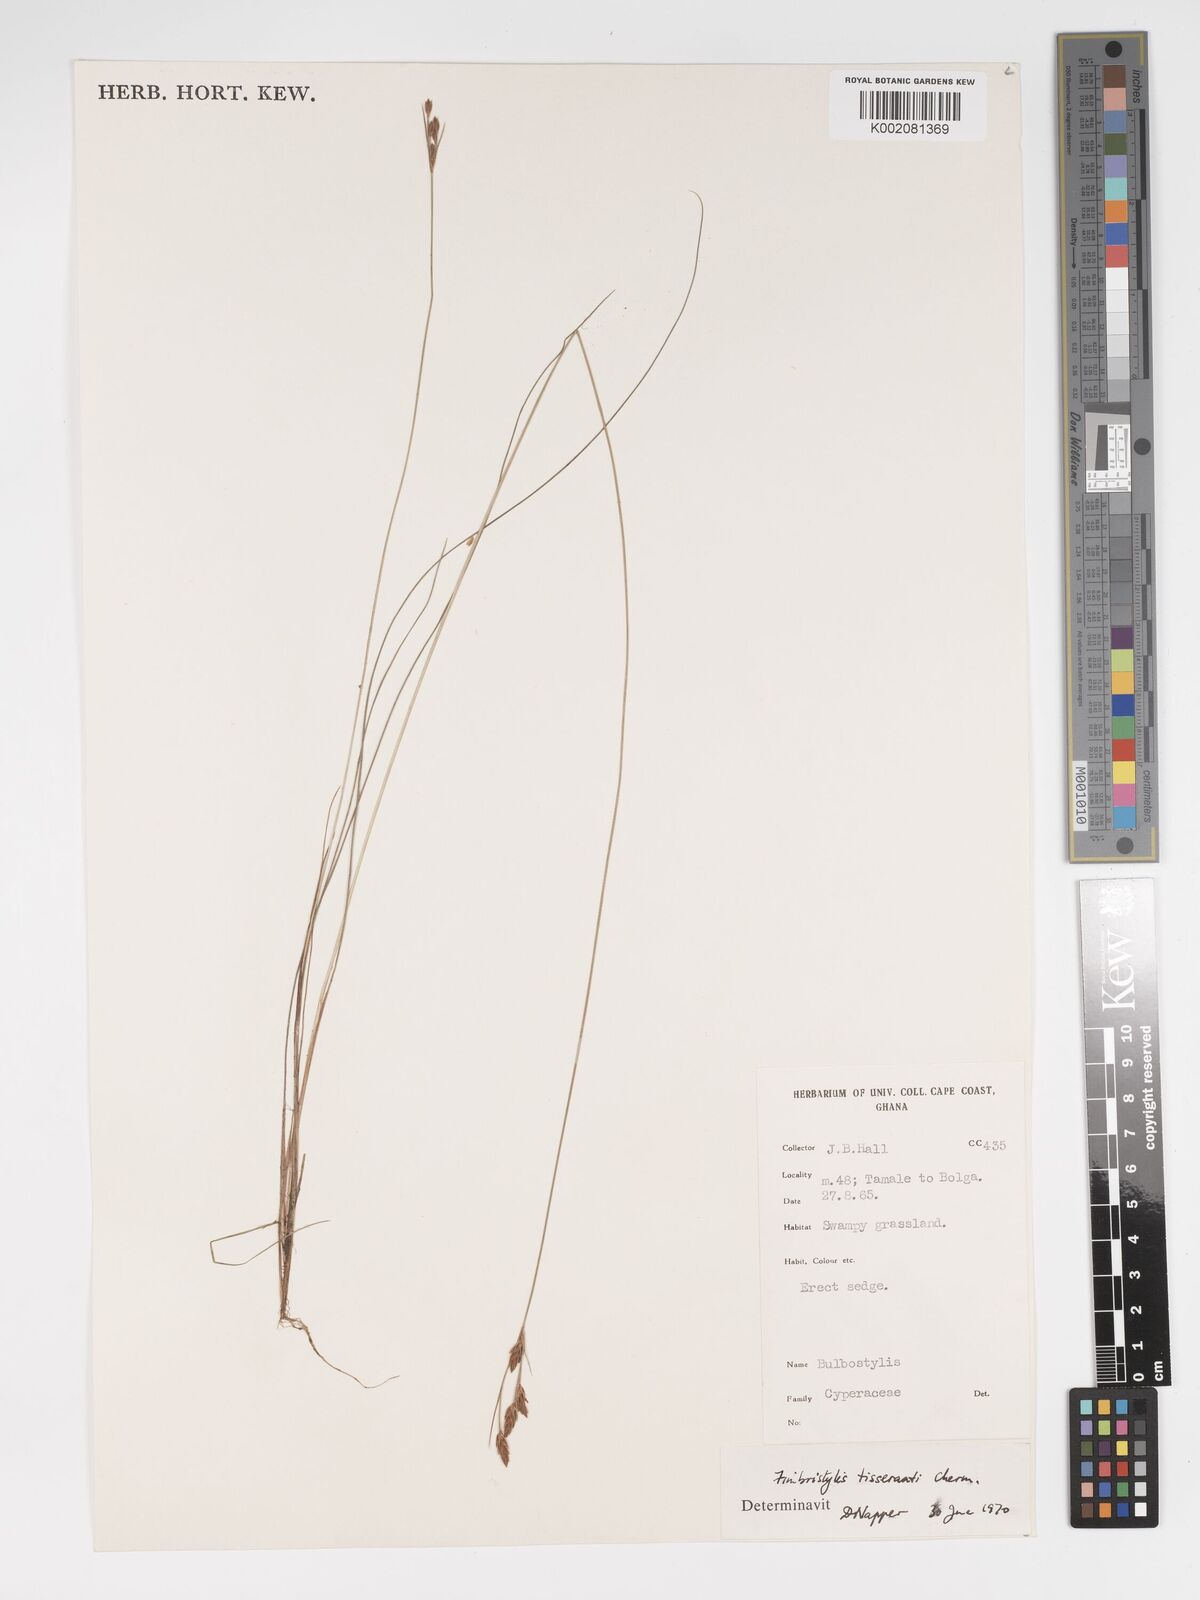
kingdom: Plantae
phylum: Tracheophyta
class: Liliopsida
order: Poales
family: Cyperaceae
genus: Bulbostylis
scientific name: Bulbostylis viridecarinata
